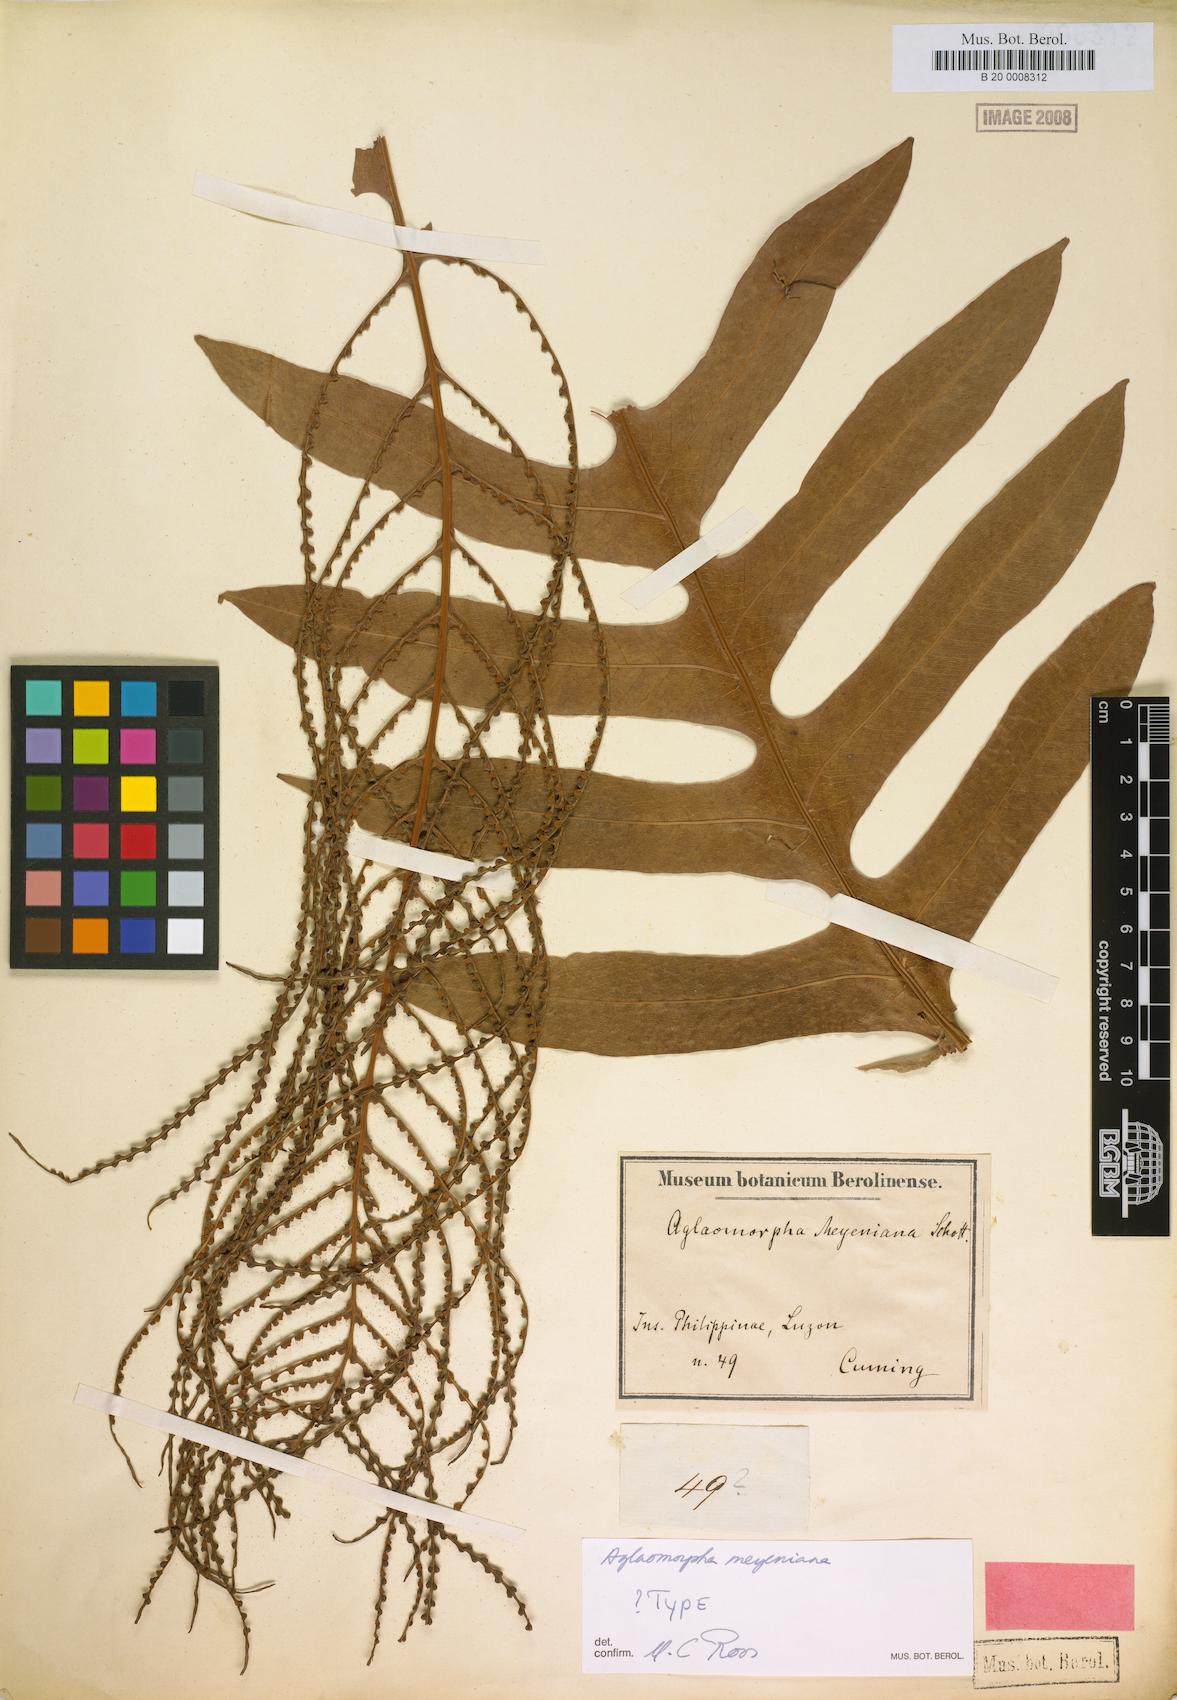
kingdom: Plantae
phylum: Tracheophyta
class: Polypodiopsida
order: Polypodiales
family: Polypodiaceae
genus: Drynaria
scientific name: Drynaria meyeniana
